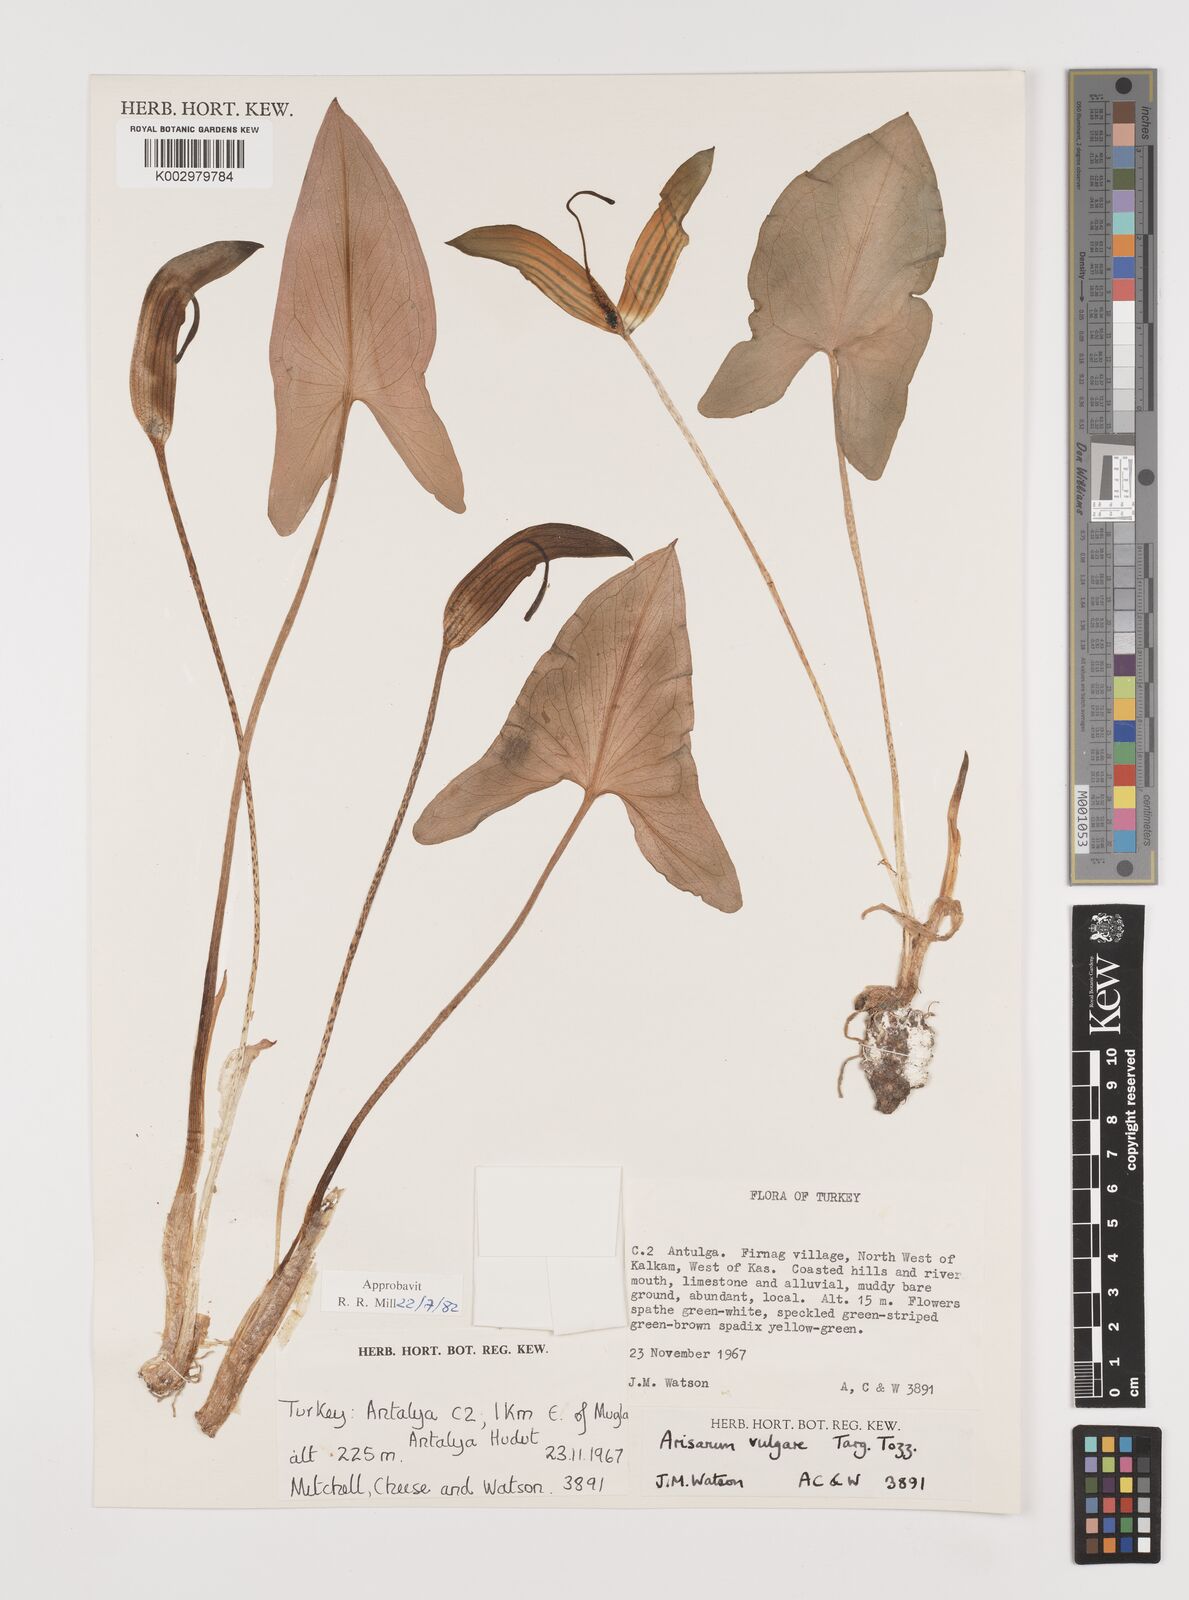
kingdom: Plantae
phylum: Tracheophyta
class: Liliopsida
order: Alismatales
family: Araceae
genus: Arisarum
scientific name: Arisarum vulgare
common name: Common arisarum
